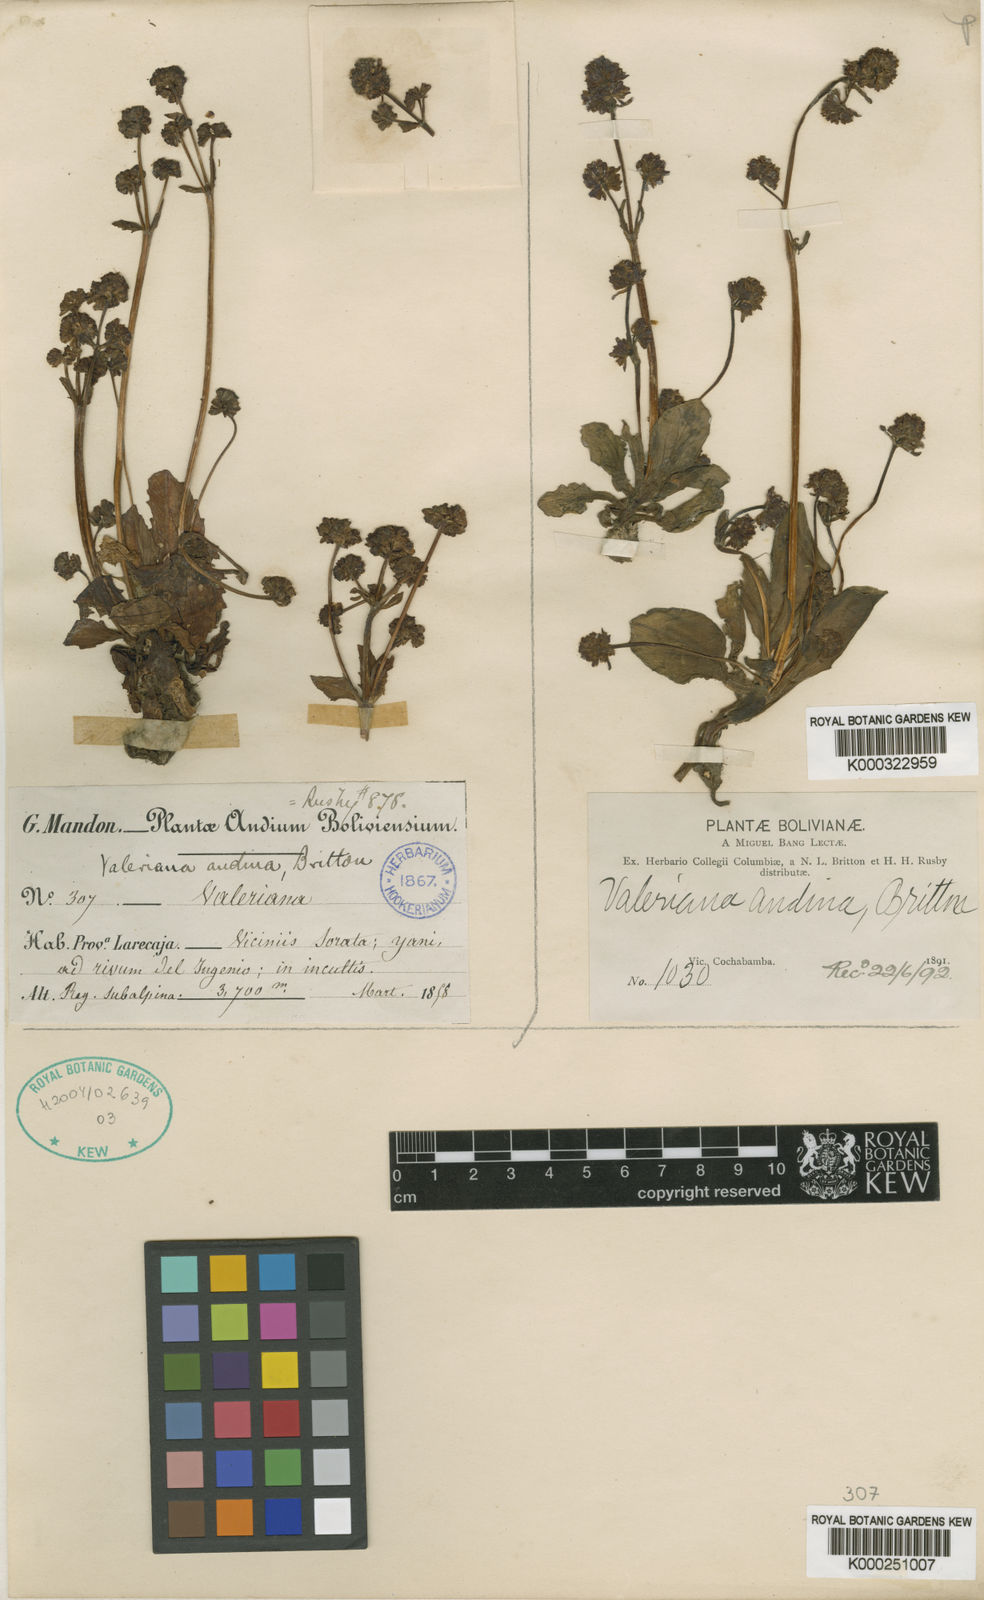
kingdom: Plantae
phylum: Tracheophyta
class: Magnoliopsida
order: Dipsacales
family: Caprifoliaceae
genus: Valeriana
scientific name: Valeriana mandonii
